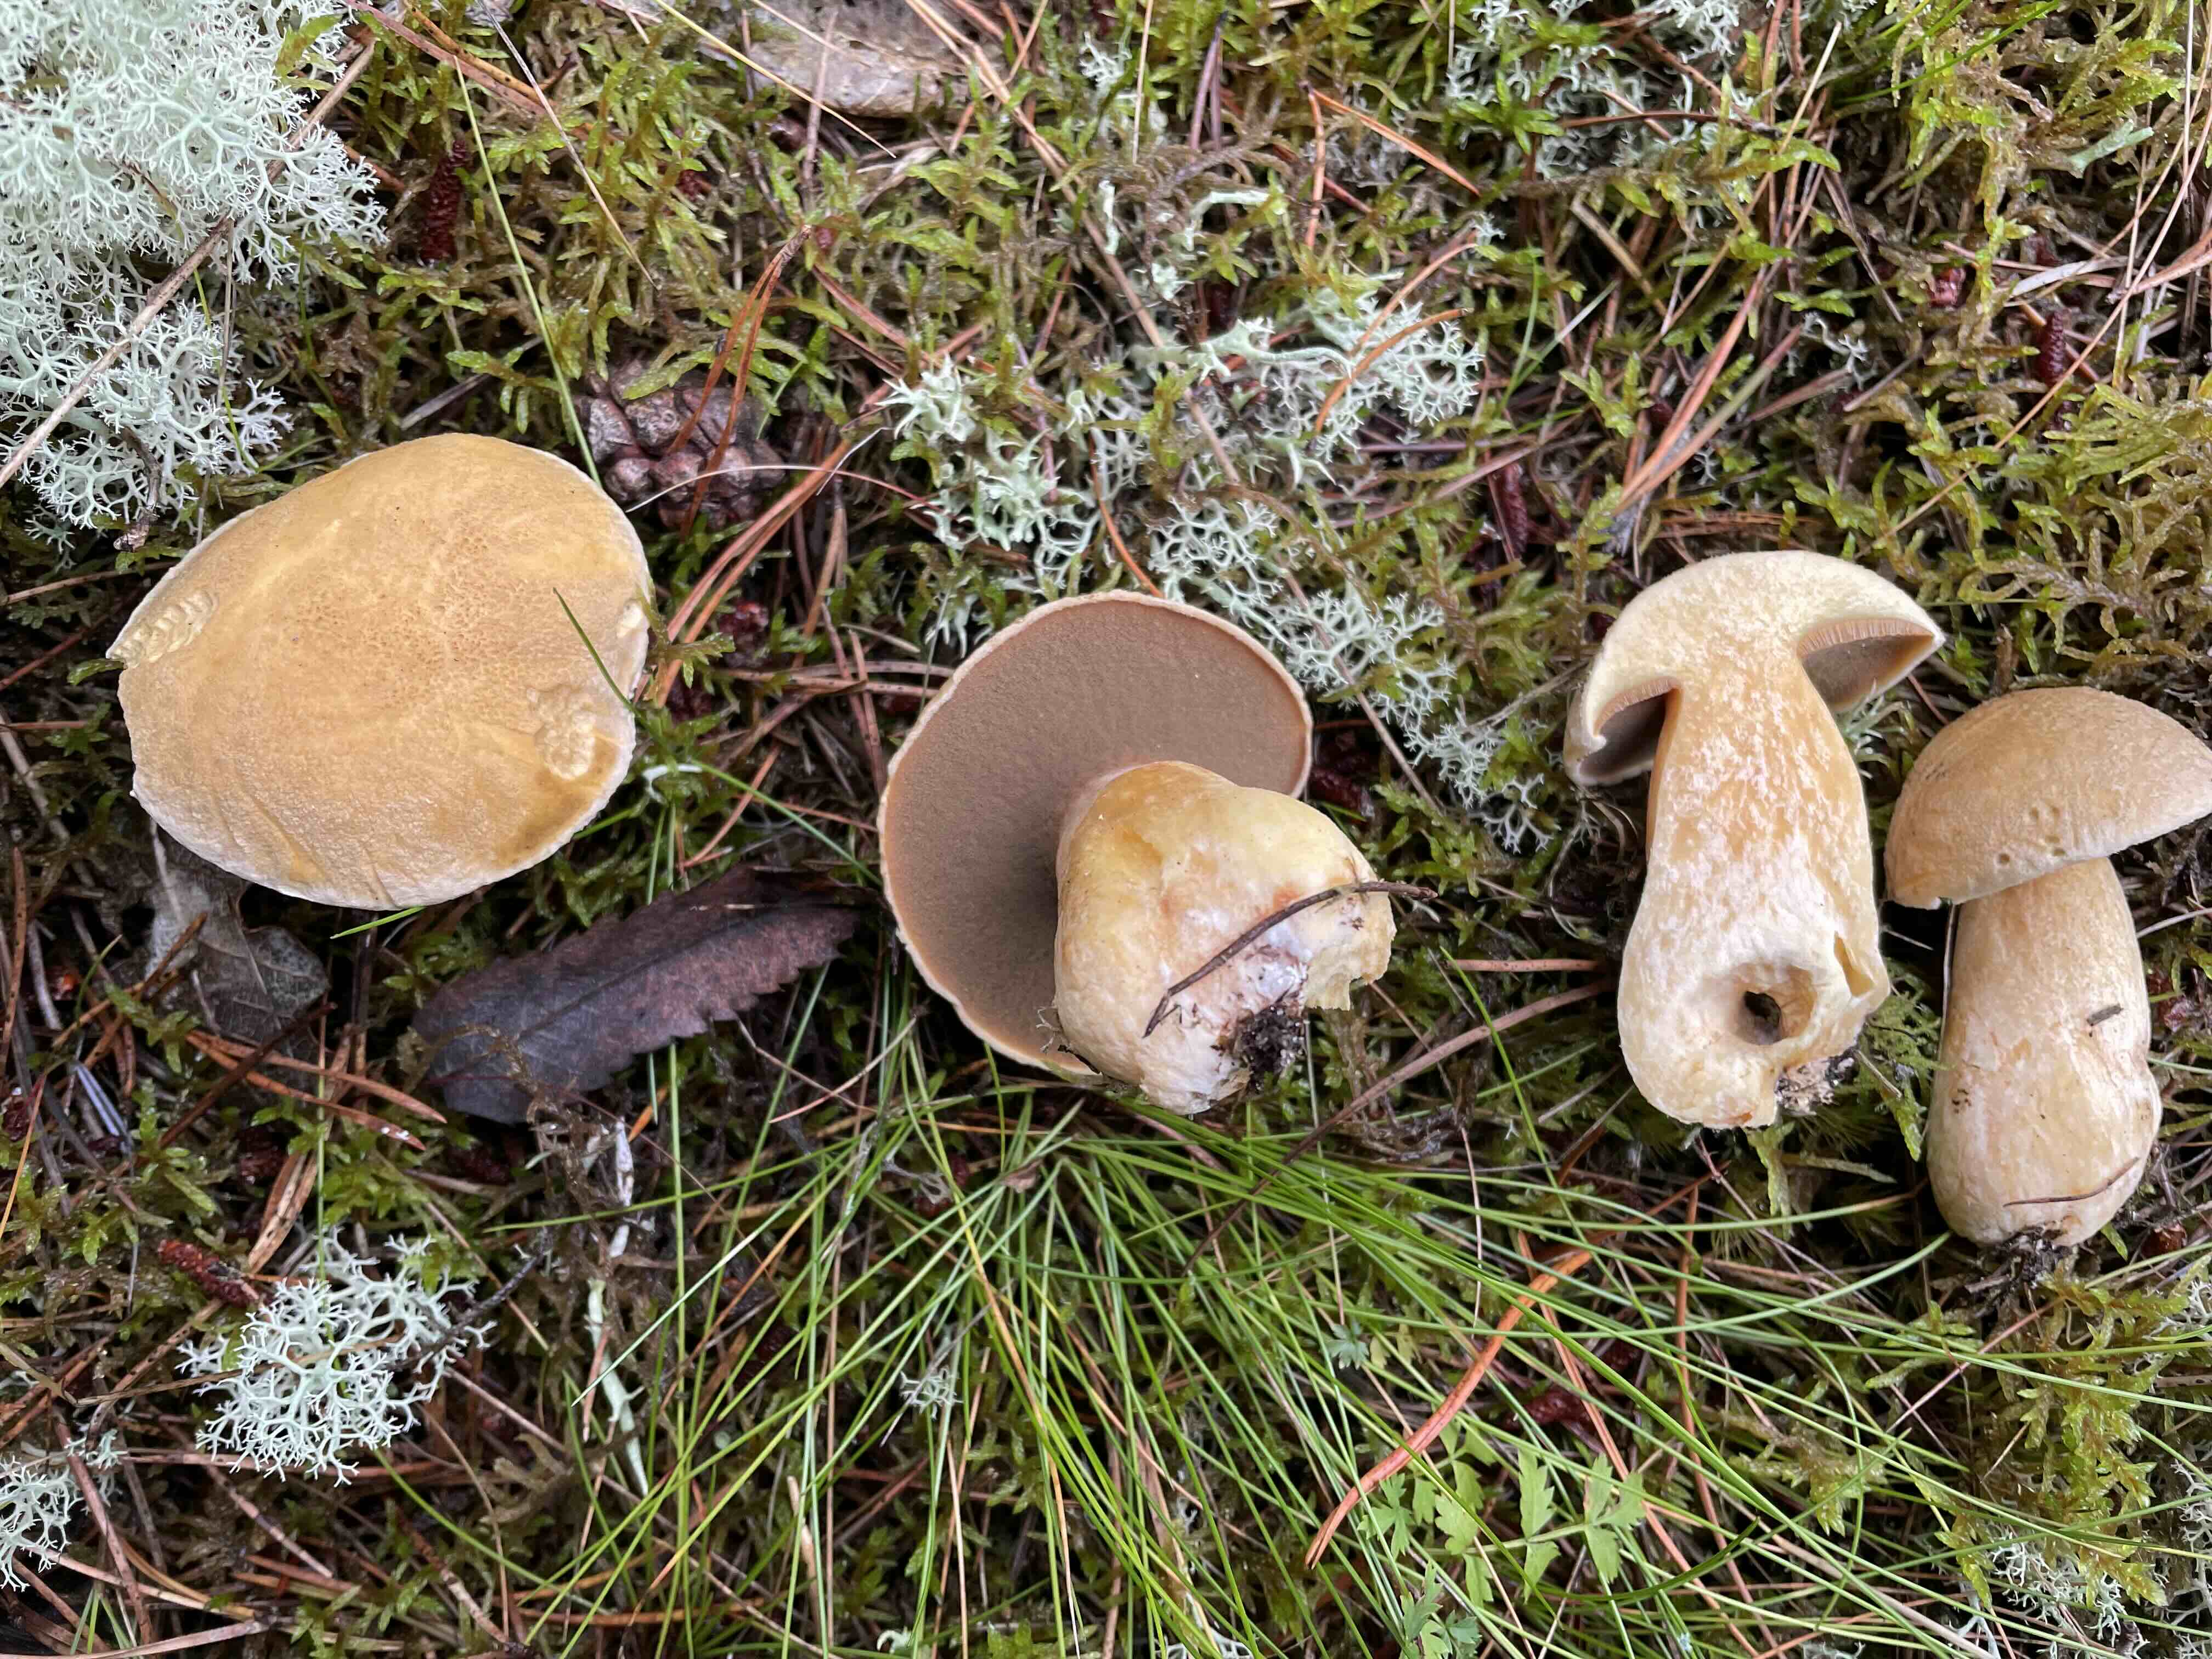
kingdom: Fungi
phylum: Basidiomycota
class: Agaricomycetes
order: Boletales
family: Suillaceae
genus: Suillus
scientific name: Suillus variegatus
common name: broget slimrørhat
